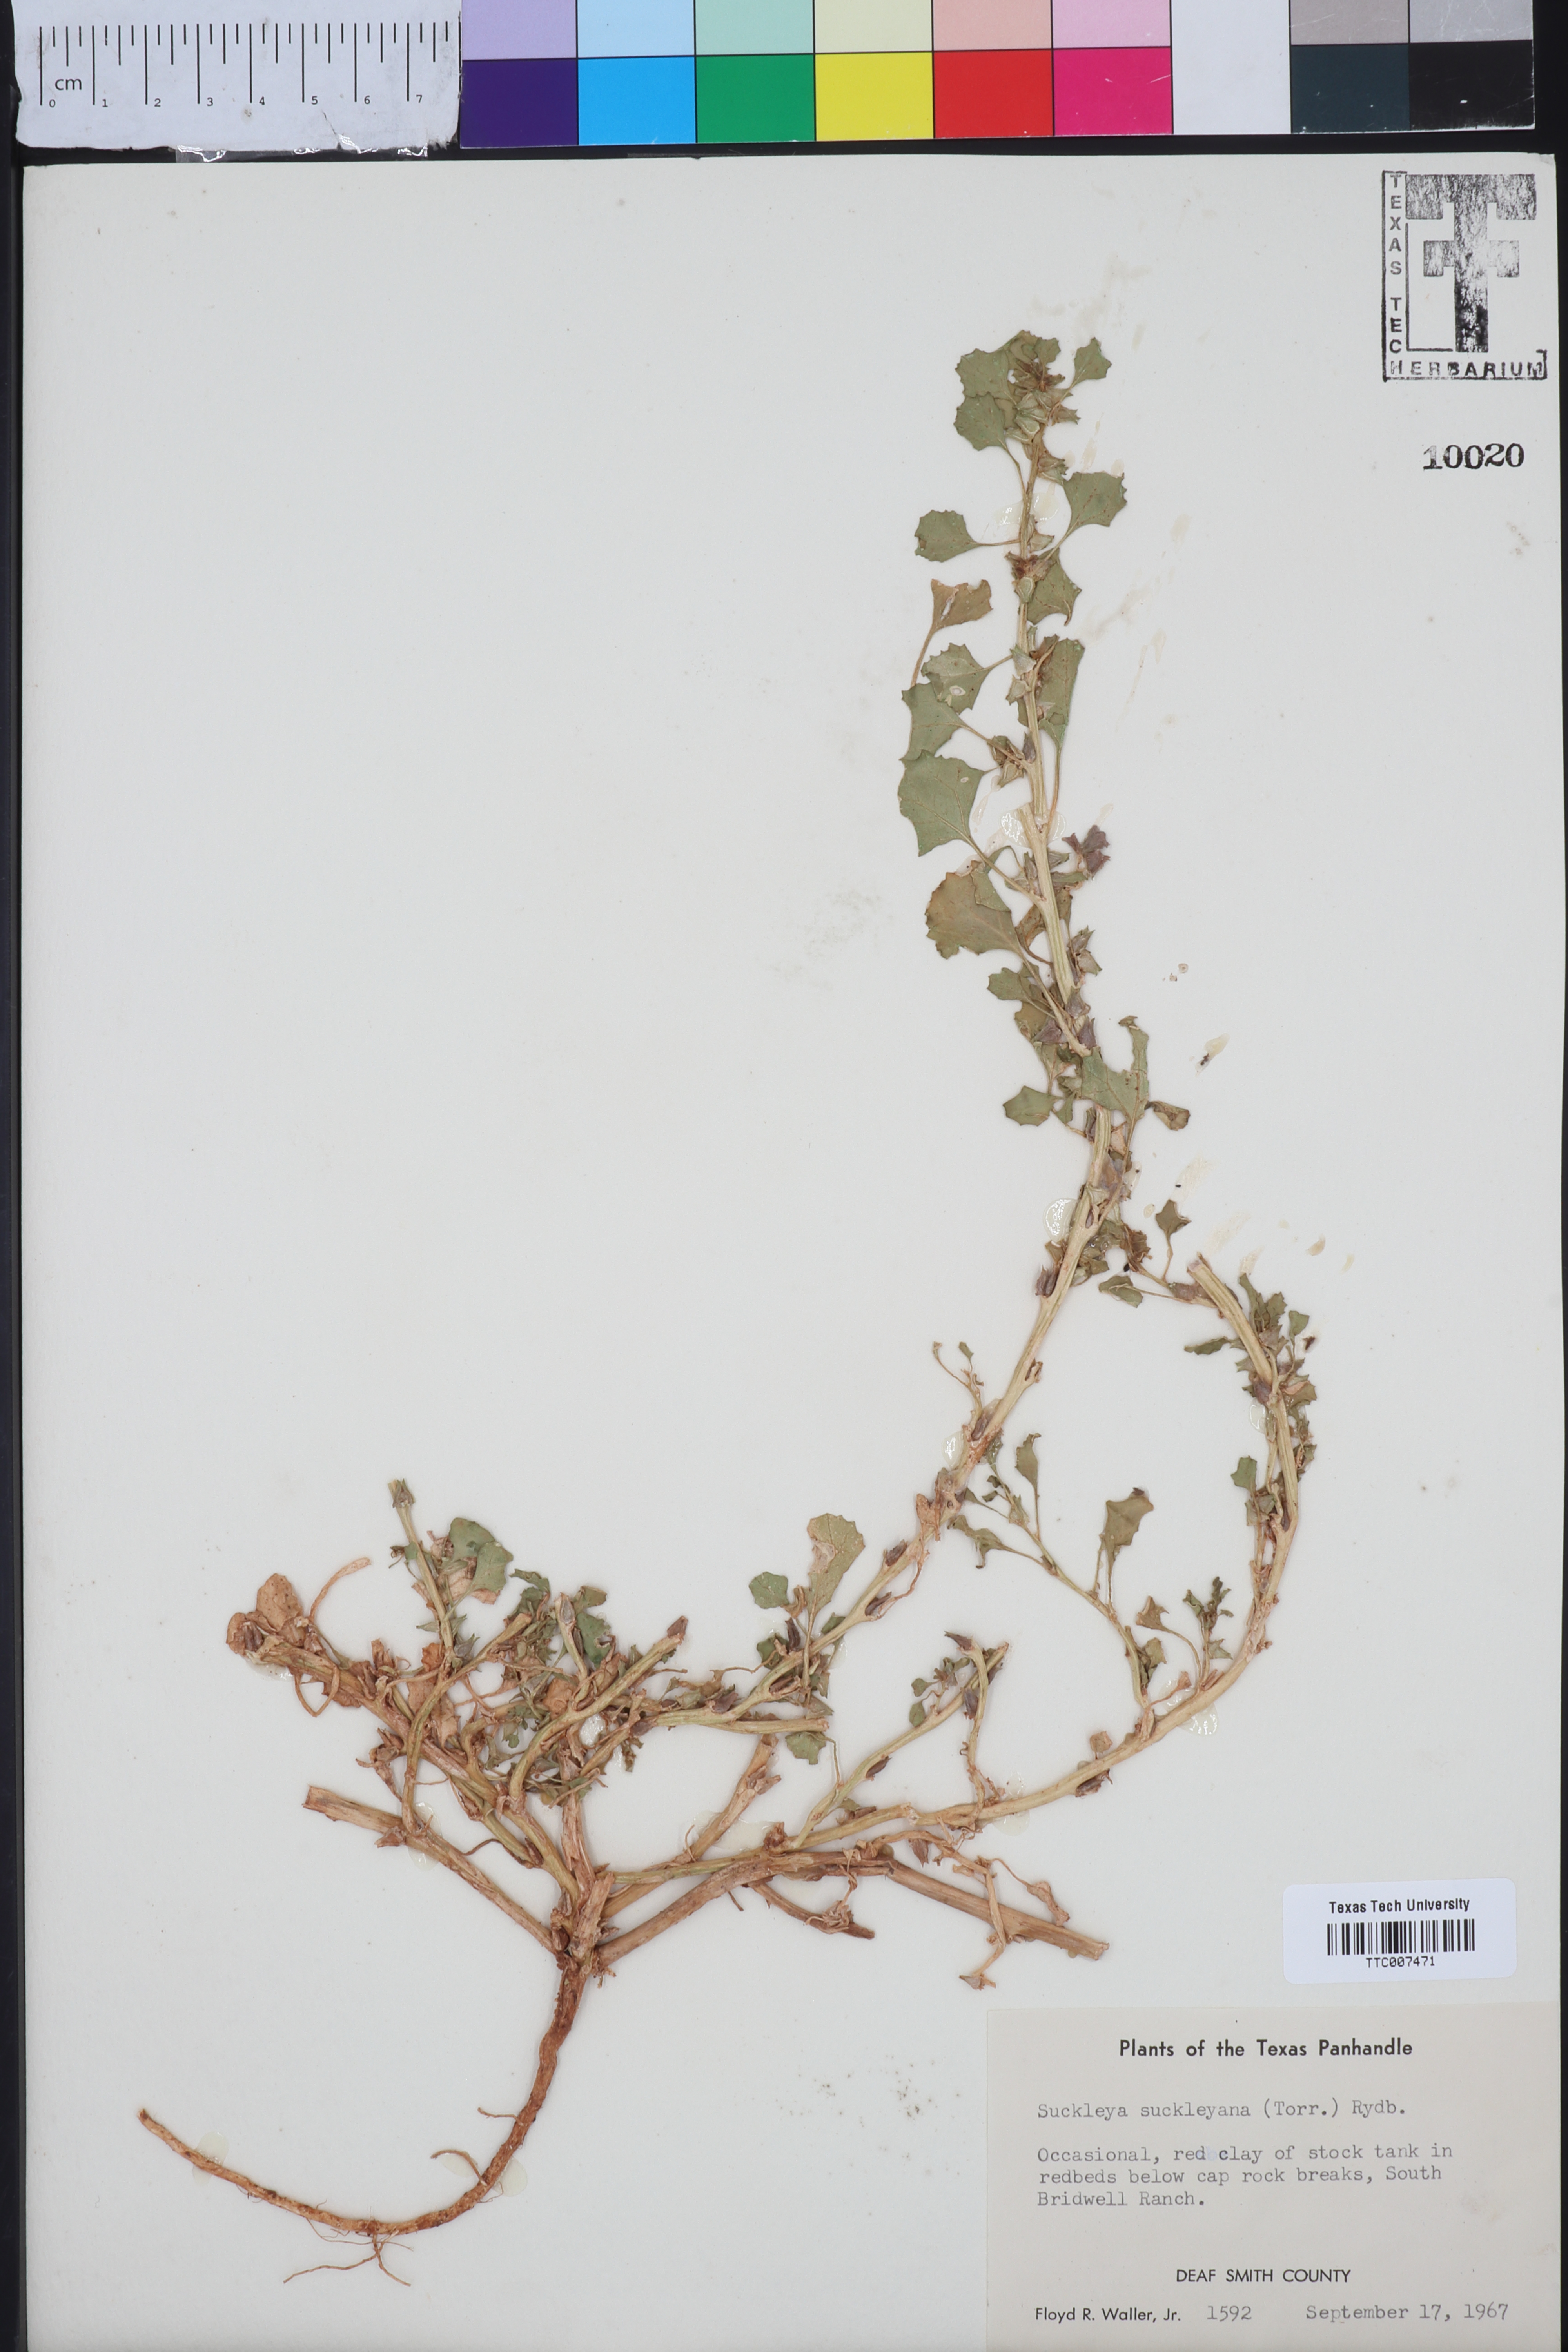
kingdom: Plantae
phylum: Tracheophyta
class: Magnoliopsida
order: Caryophyllales
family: Amaranthaceae
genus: Suckleya
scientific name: Suckleya suckleyana
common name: Poison suckleya
